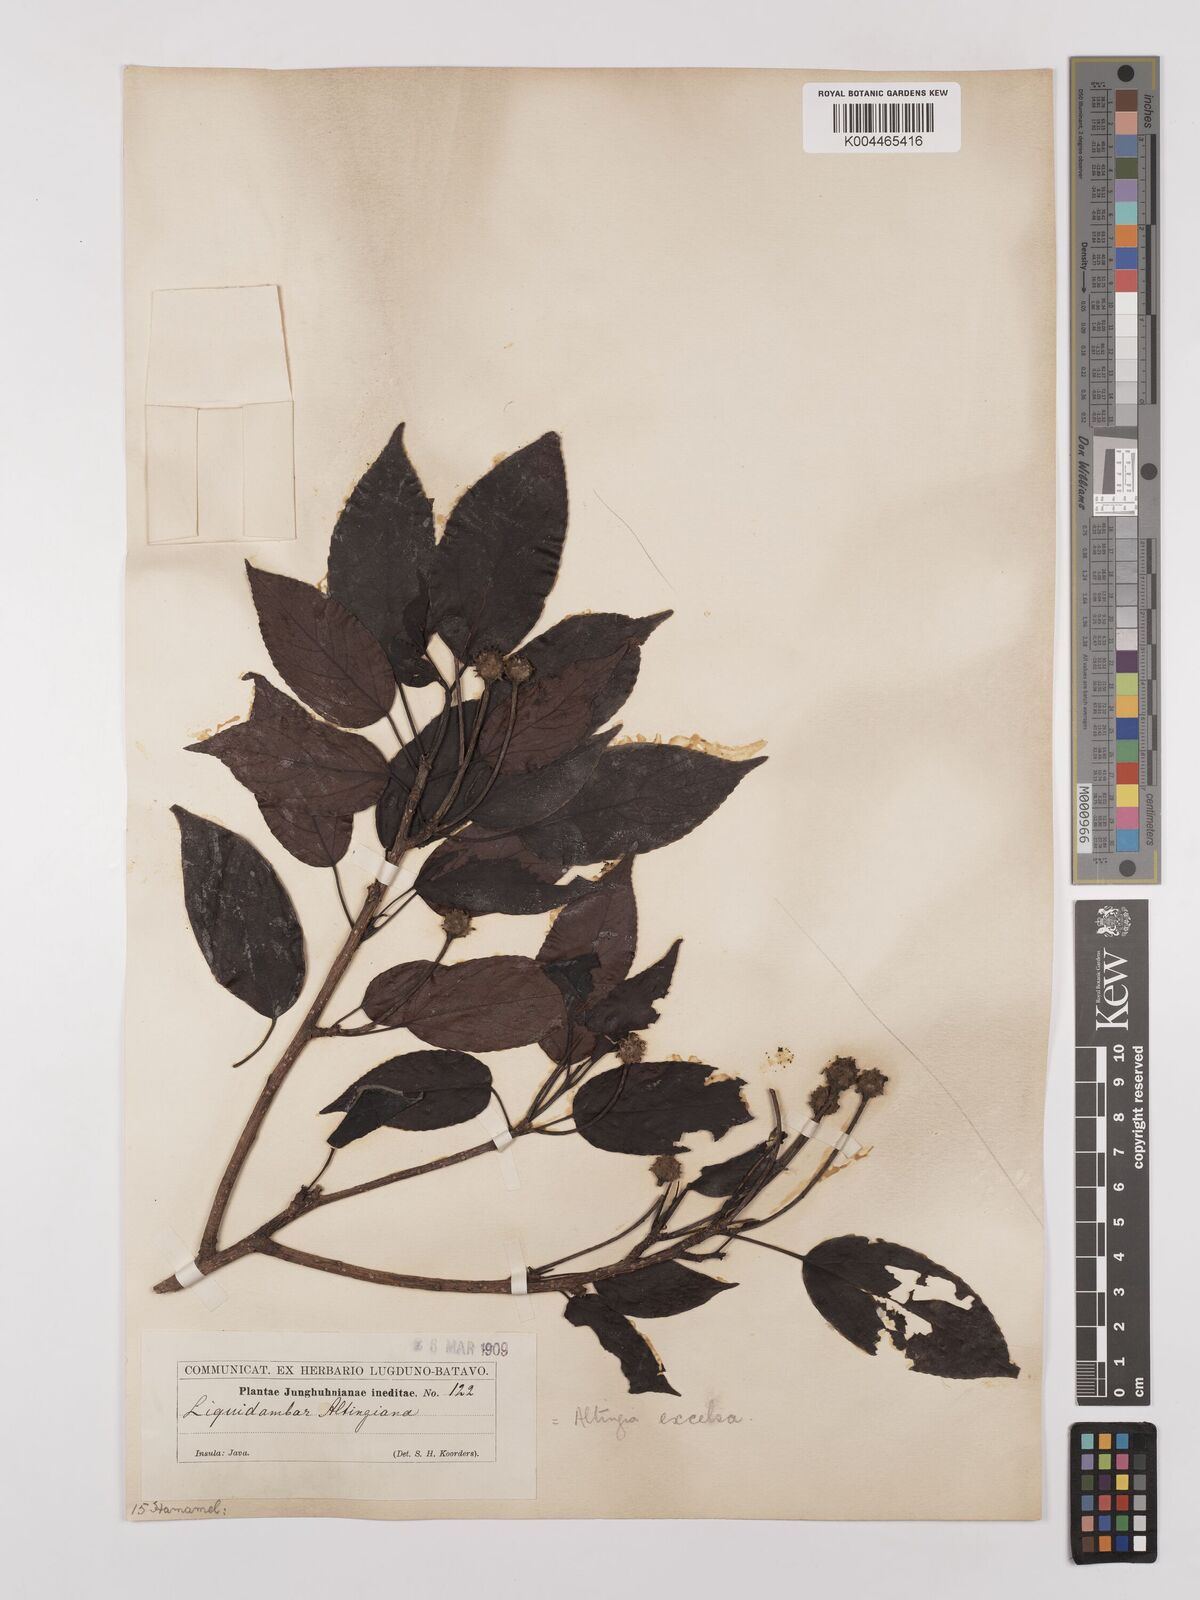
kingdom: Plantae
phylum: Tracheophyta
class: Magnoliopsida
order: Saxifragales
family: Altingiaceae
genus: Liquidambar
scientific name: Liquidambar excelsa
